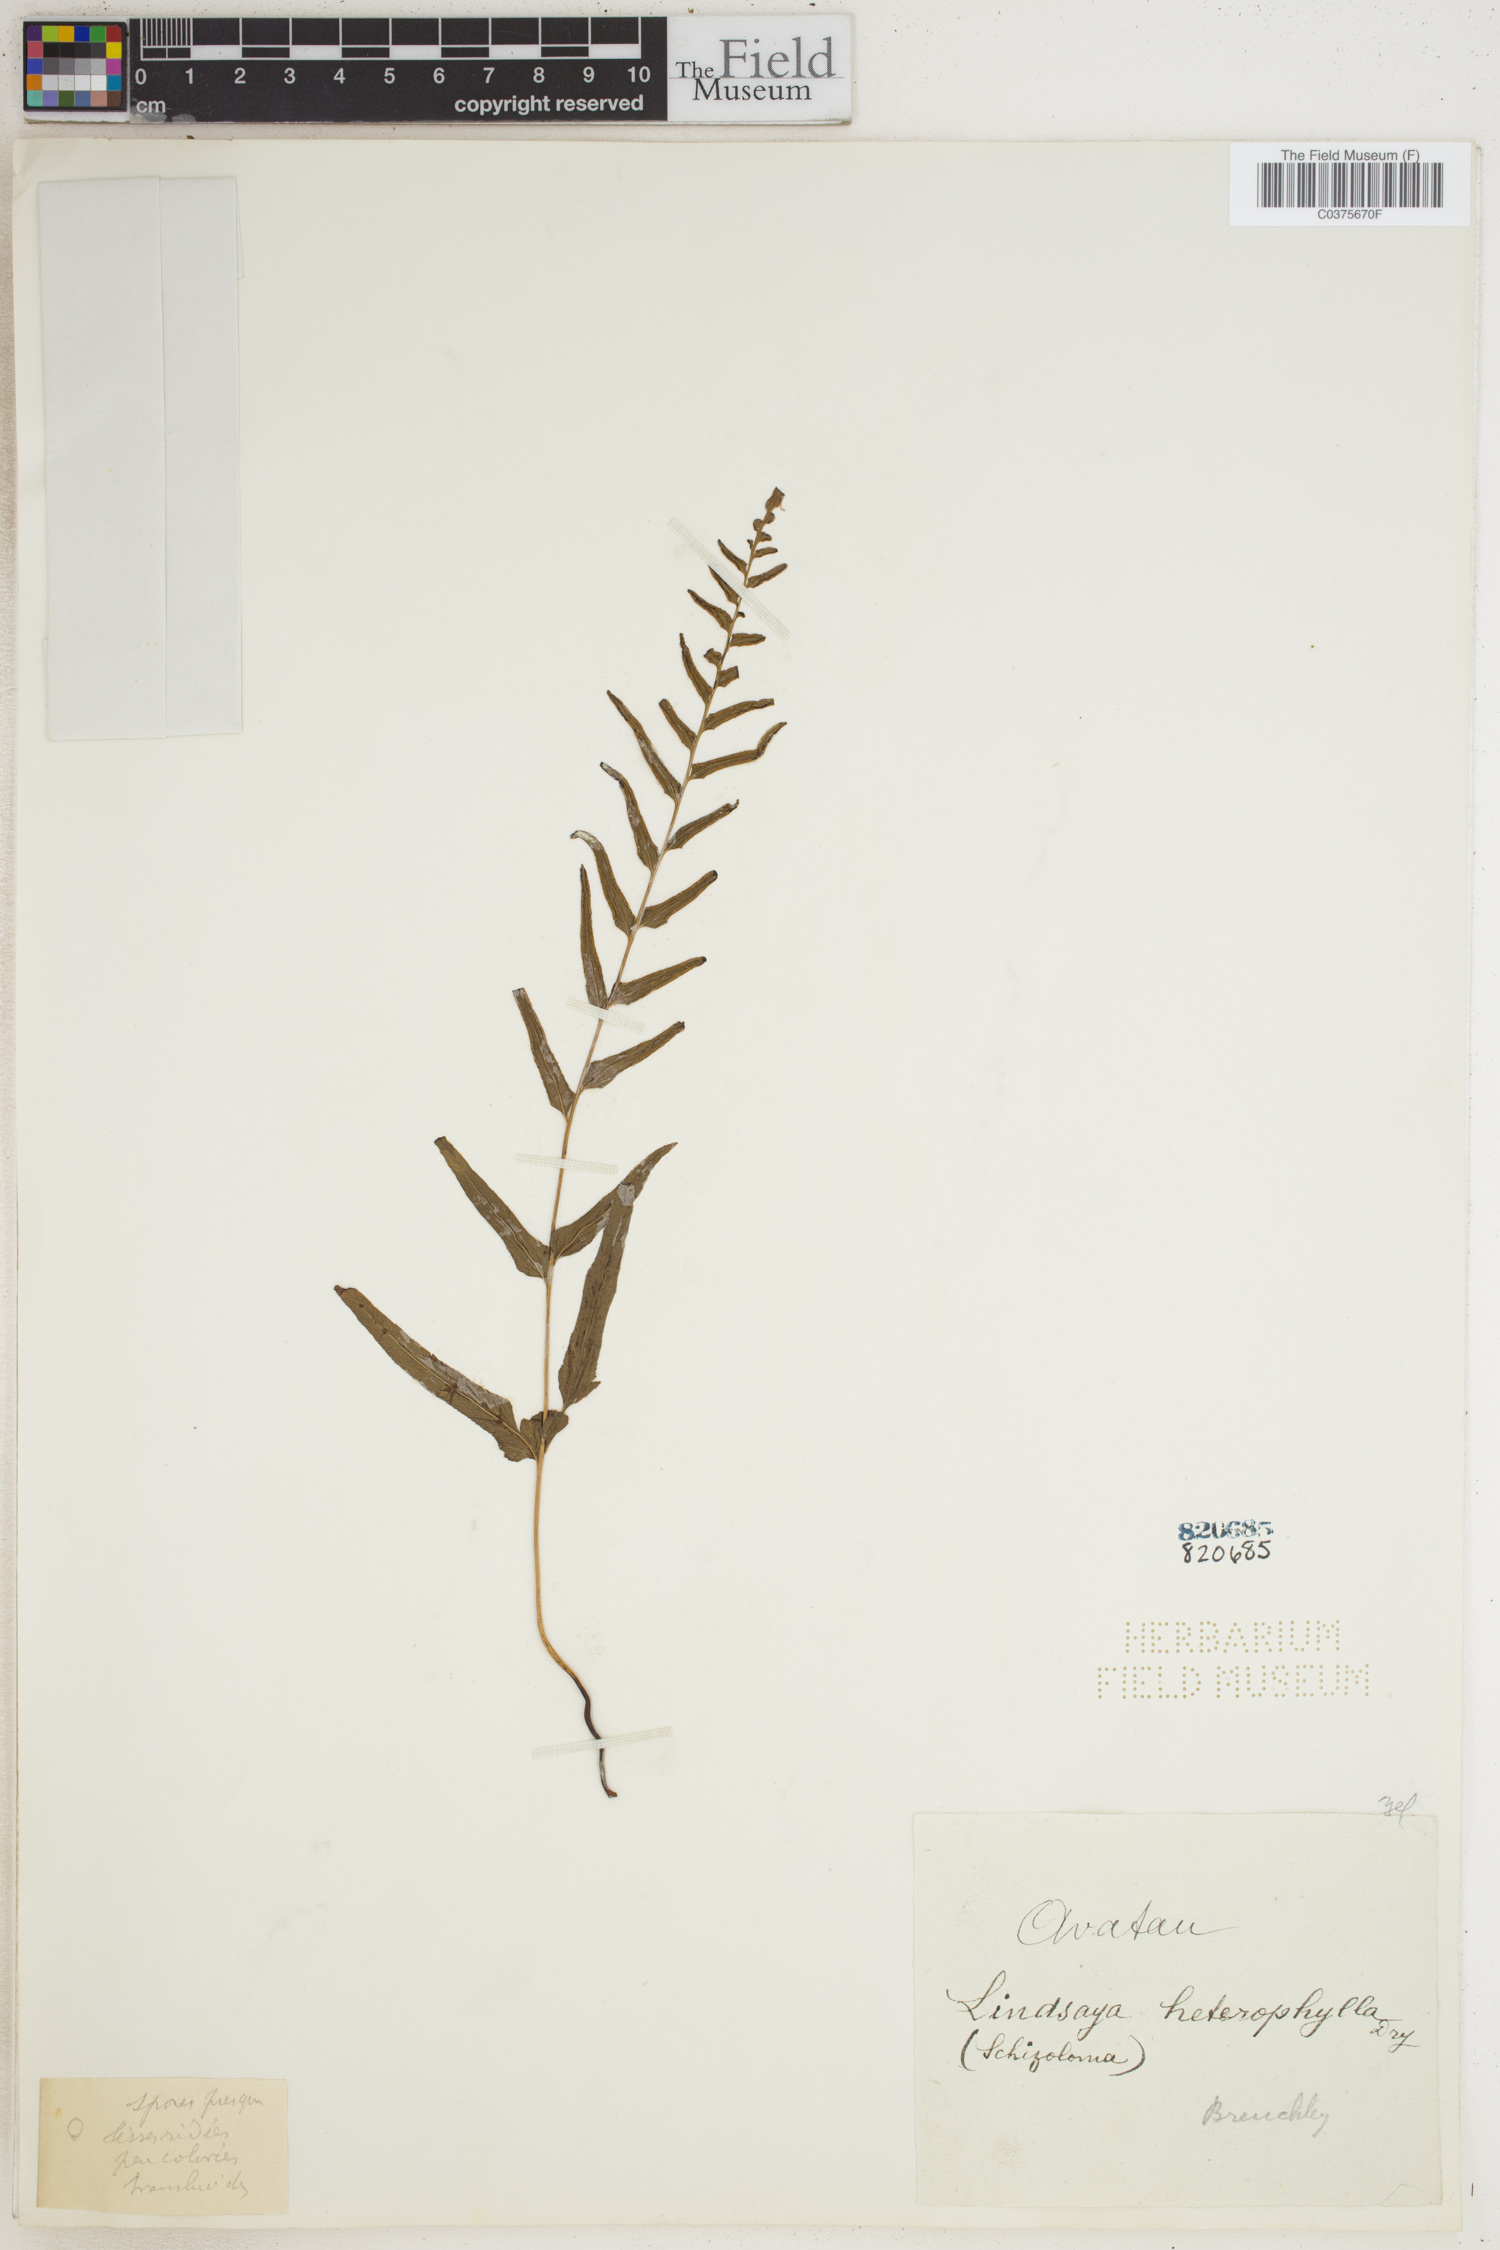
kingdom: Plantae
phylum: Tracheophyta
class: Polypodiopsida
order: Polypodiales
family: Lindsaeaceae
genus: Lindsaea
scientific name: Lindsaea heterophylla
